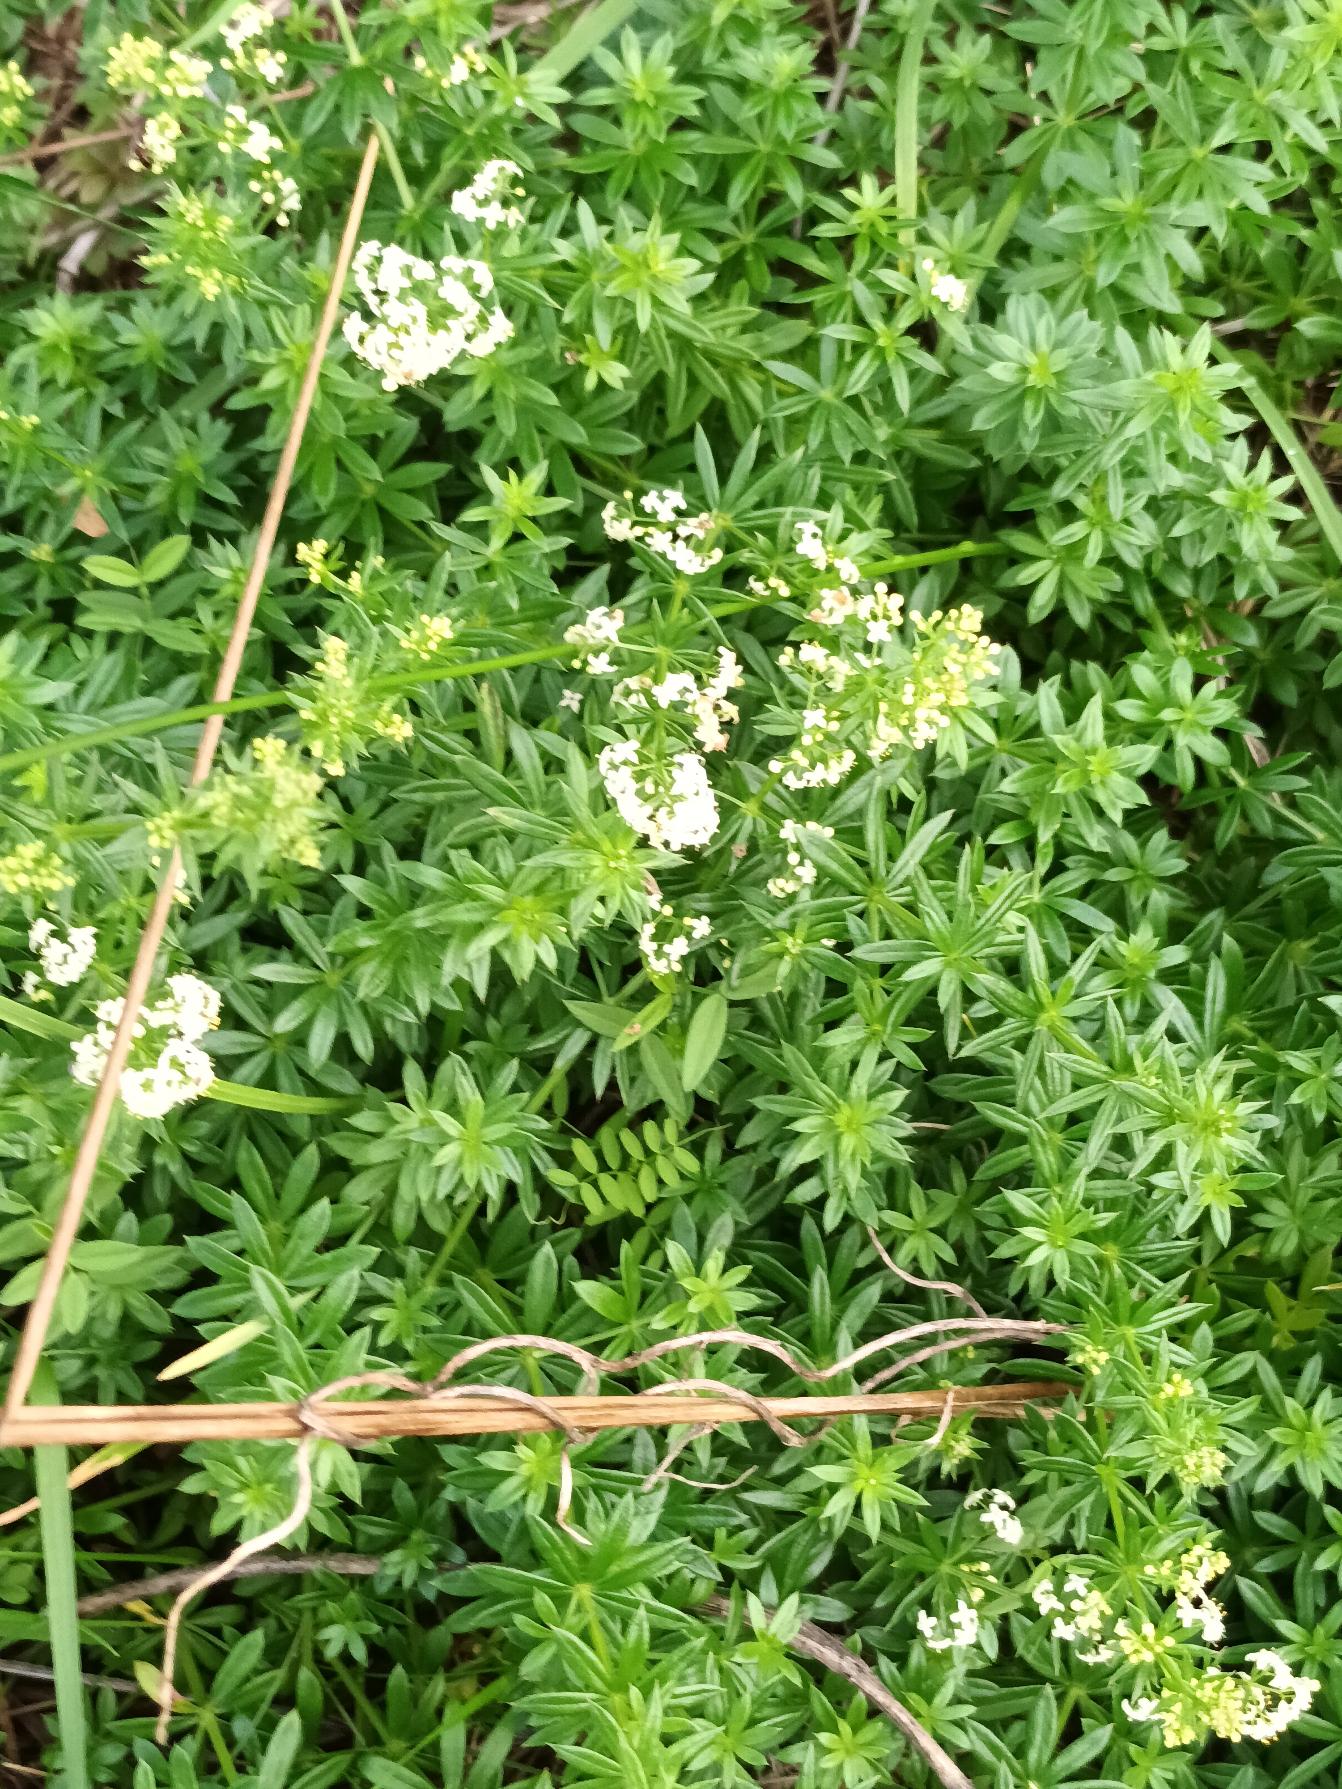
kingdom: Plantae
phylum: Tracheophyta
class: Magnoliopsida
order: Gentianales
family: Rubiaceae
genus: Galium
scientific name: Galium mollugo
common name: Hvid snerre
